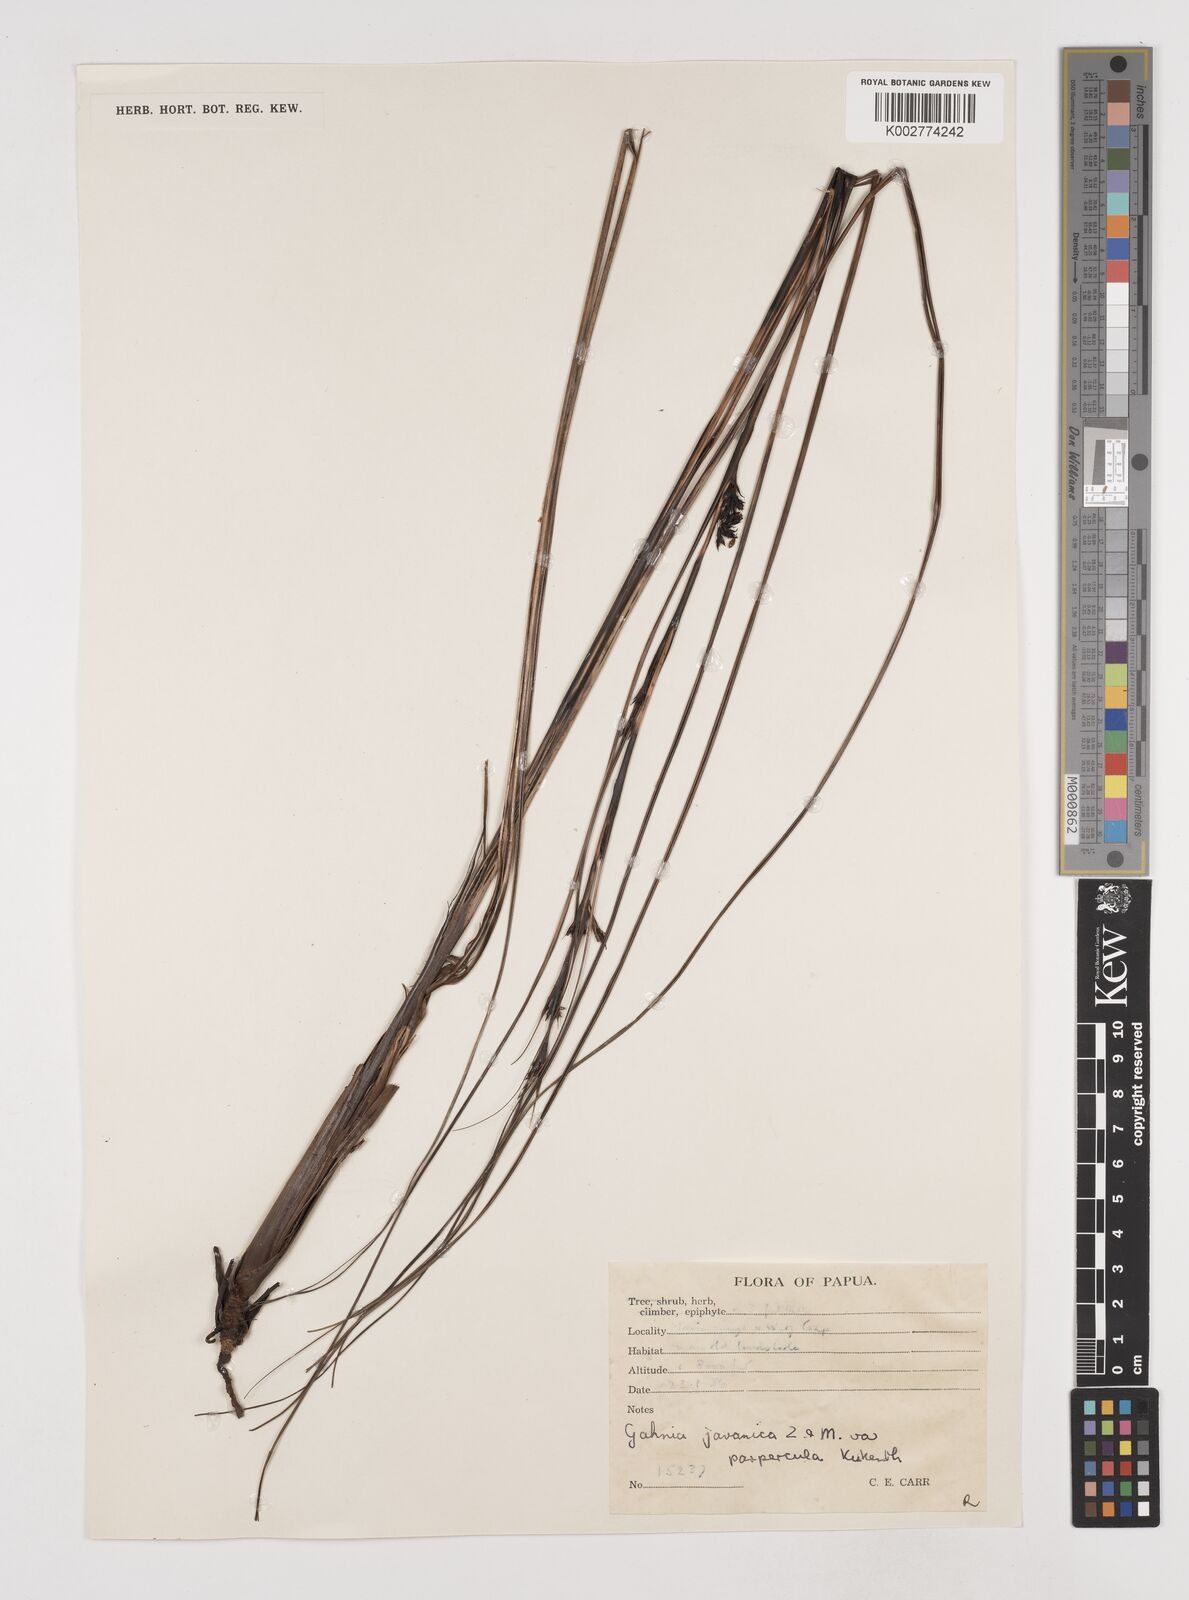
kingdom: Plantae
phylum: Tracheophyta
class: Liliopsida
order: Poales
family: Cyperaceae
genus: Gahnia
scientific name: Gahnia javanica
